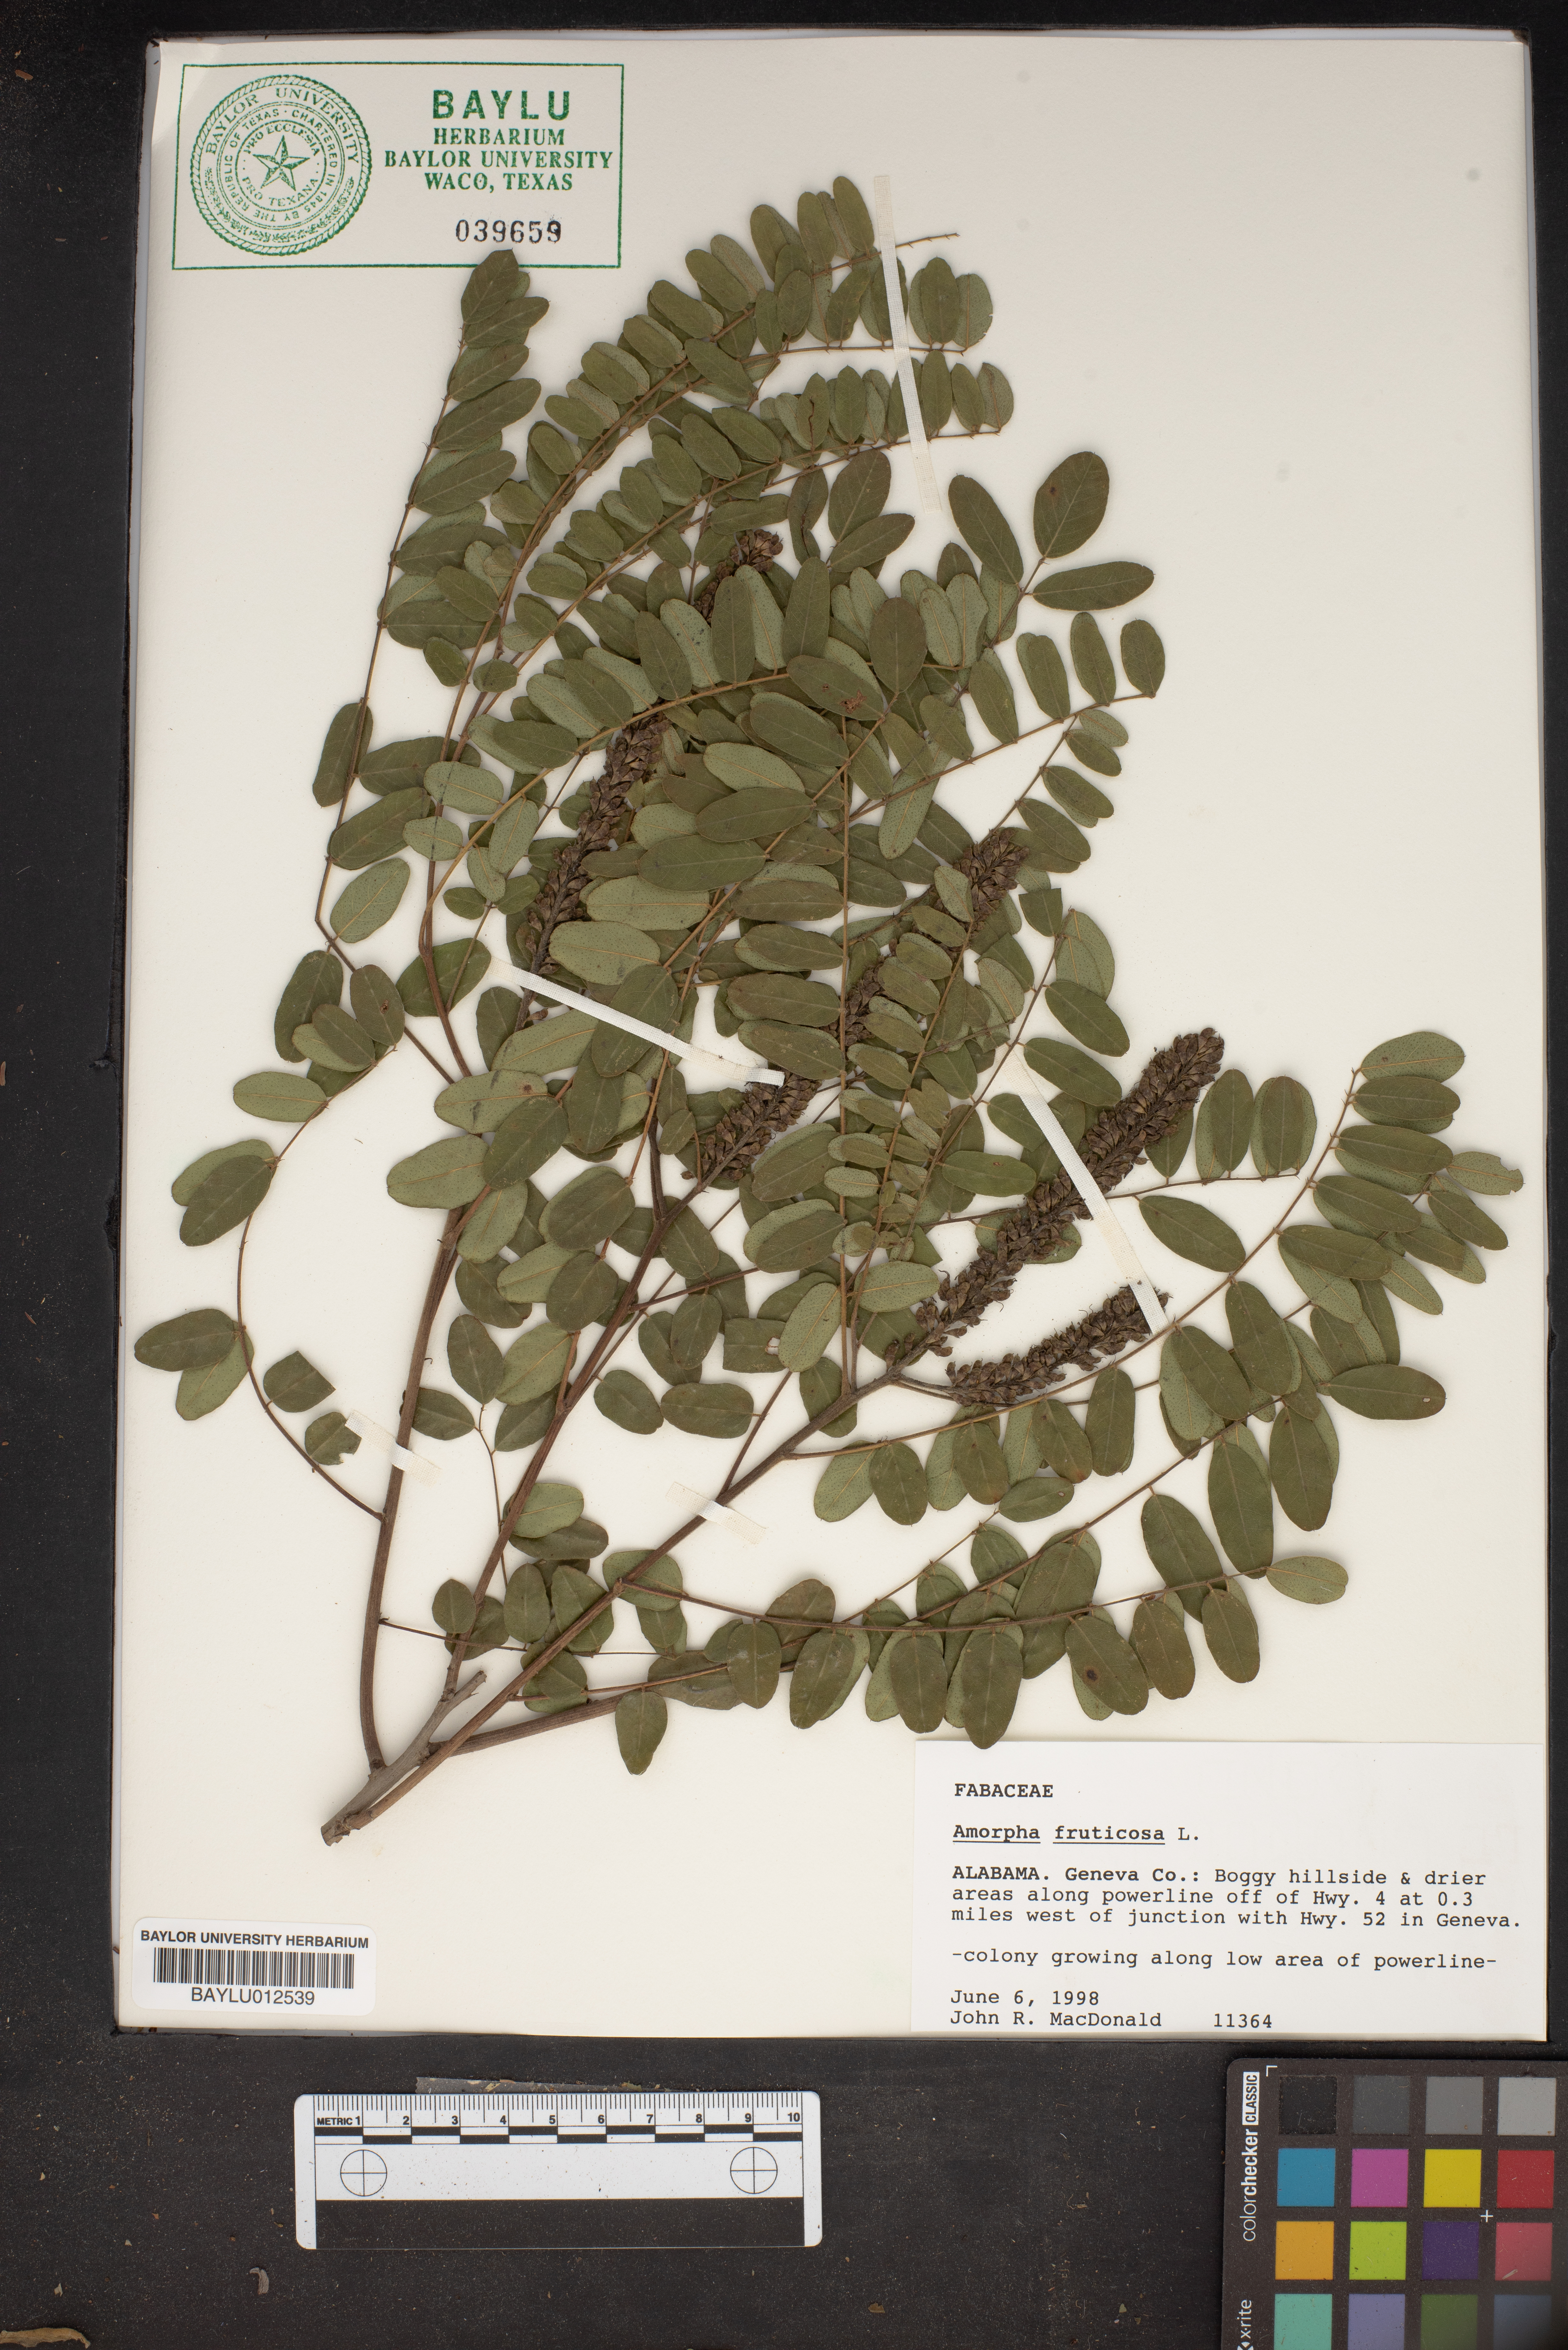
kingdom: Plantae
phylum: Tracheophyta
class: Magnoliopsida
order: Fabales
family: Fabaceae
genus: Amorpha
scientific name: Amorpha fruticosa
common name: False indigo
